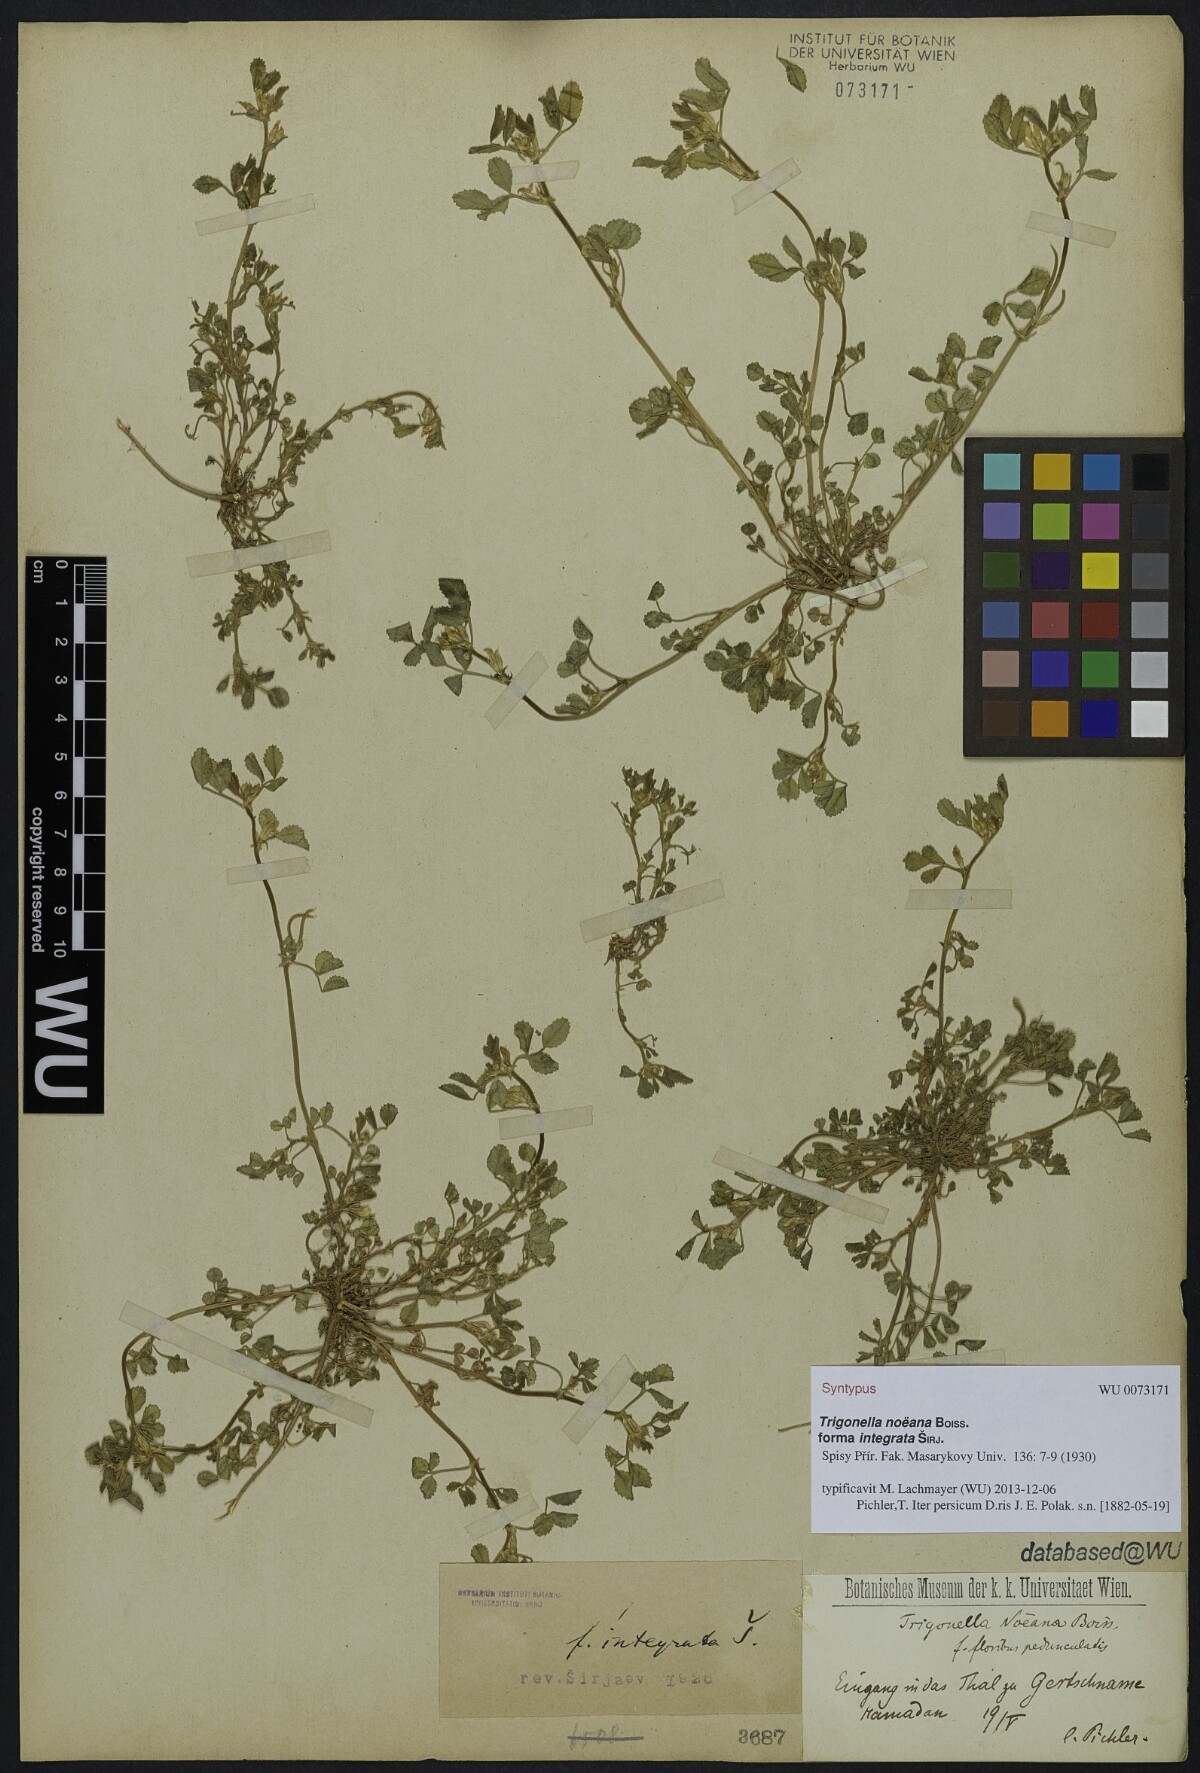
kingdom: Plantae
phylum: Tracheophyta
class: Magnoliopsida
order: Fabales
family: Fabaceae
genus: Medicago
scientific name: Medicago monantha
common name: Medick
